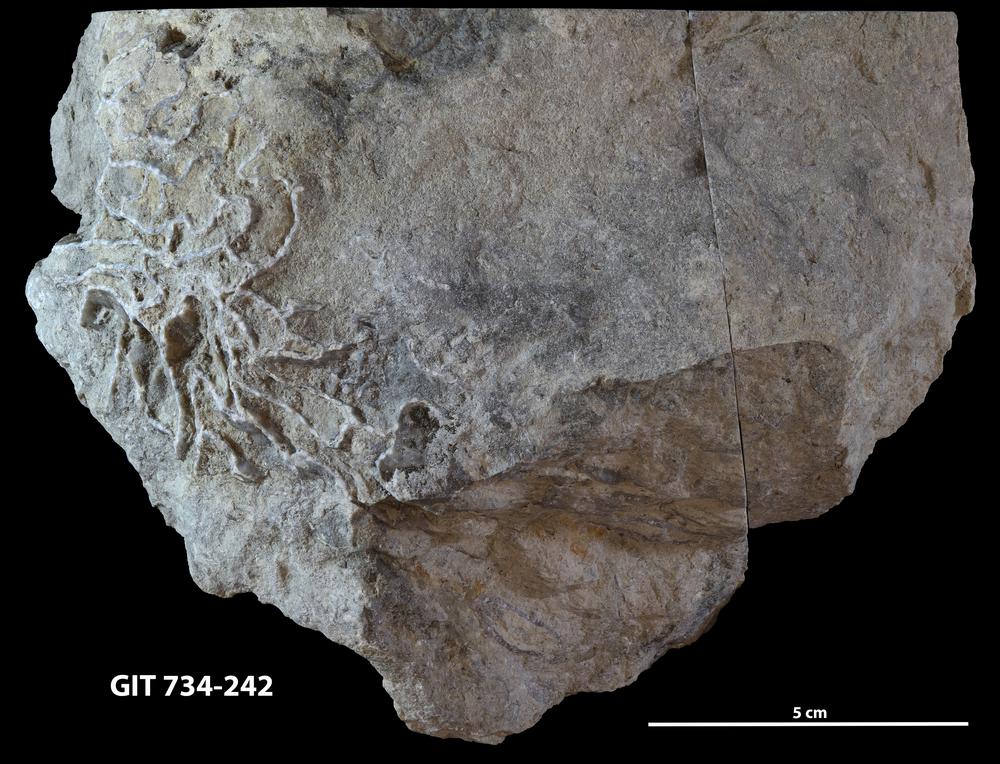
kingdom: Animalia
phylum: Cnidaria
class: Anthozoa
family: Cateniporidae
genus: Catenipora
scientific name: Catenipora
